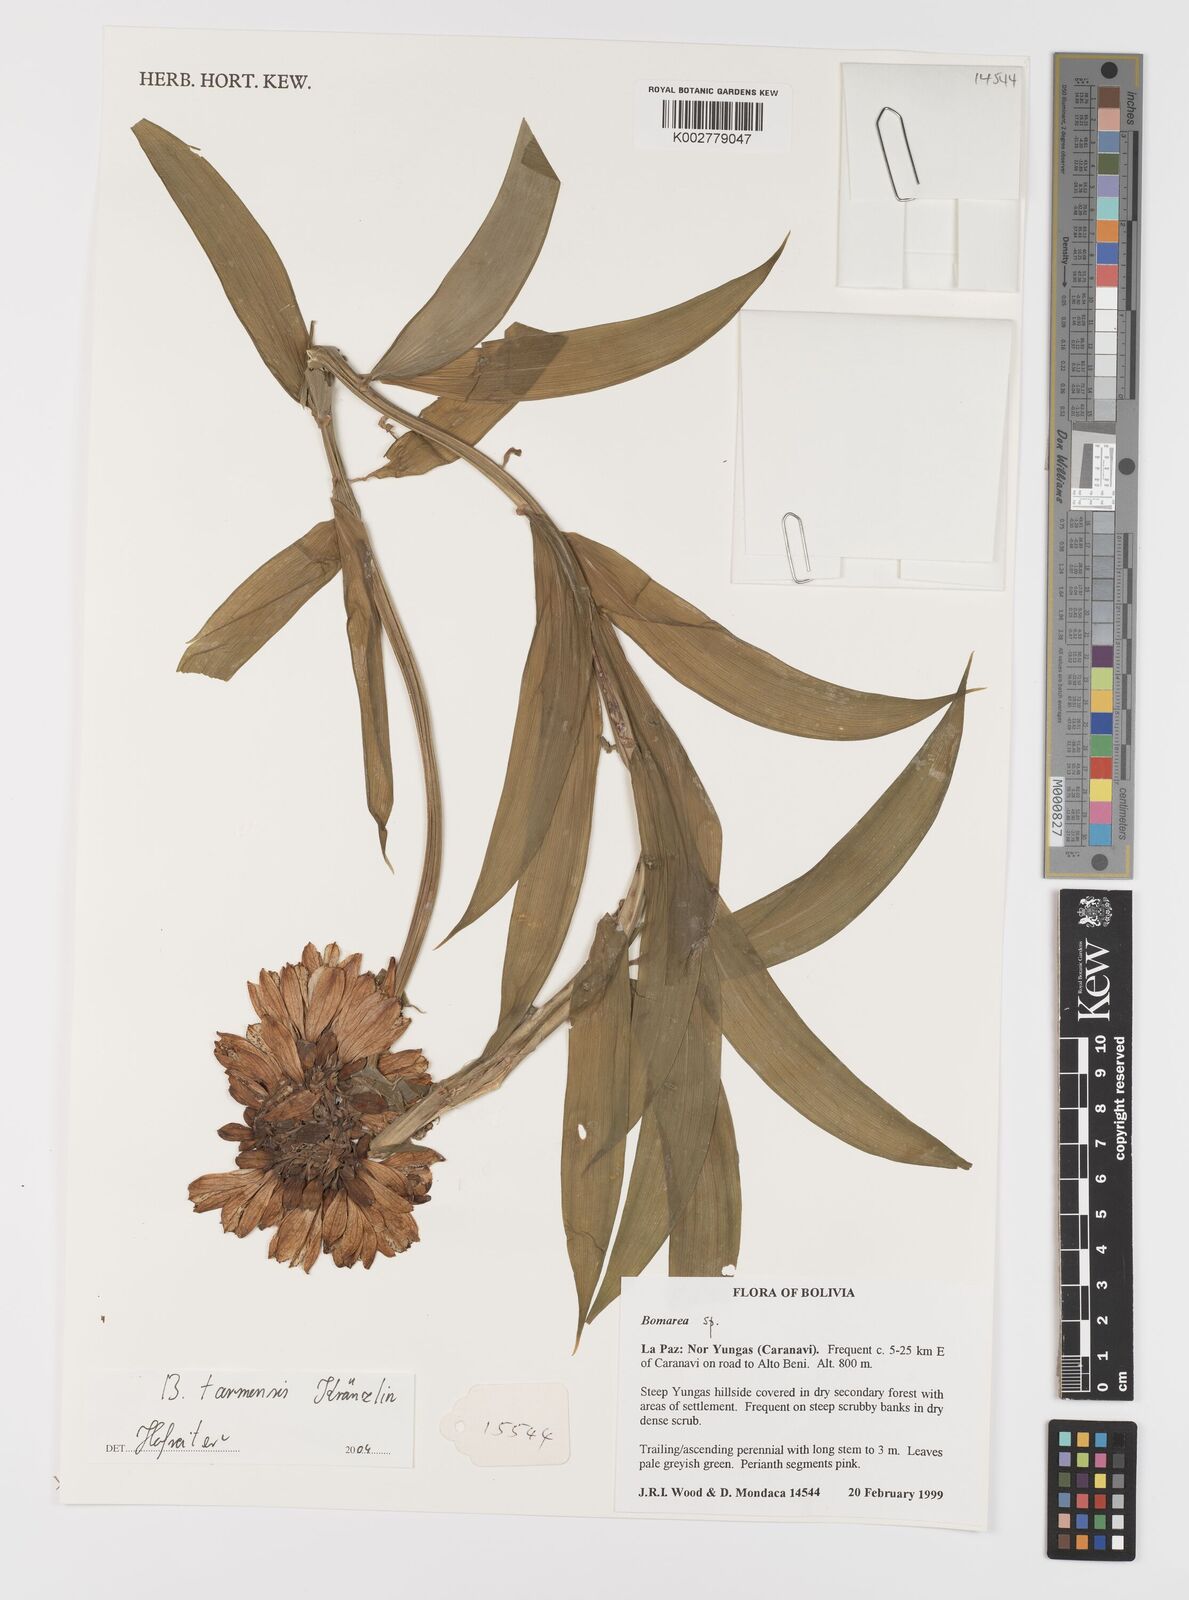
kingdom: Plantae
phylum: Tracheophyta
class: Liliopsida
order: Liliales
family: Alstroemeriaceae
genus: Bomarea
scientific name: Bomarea tarmensis
